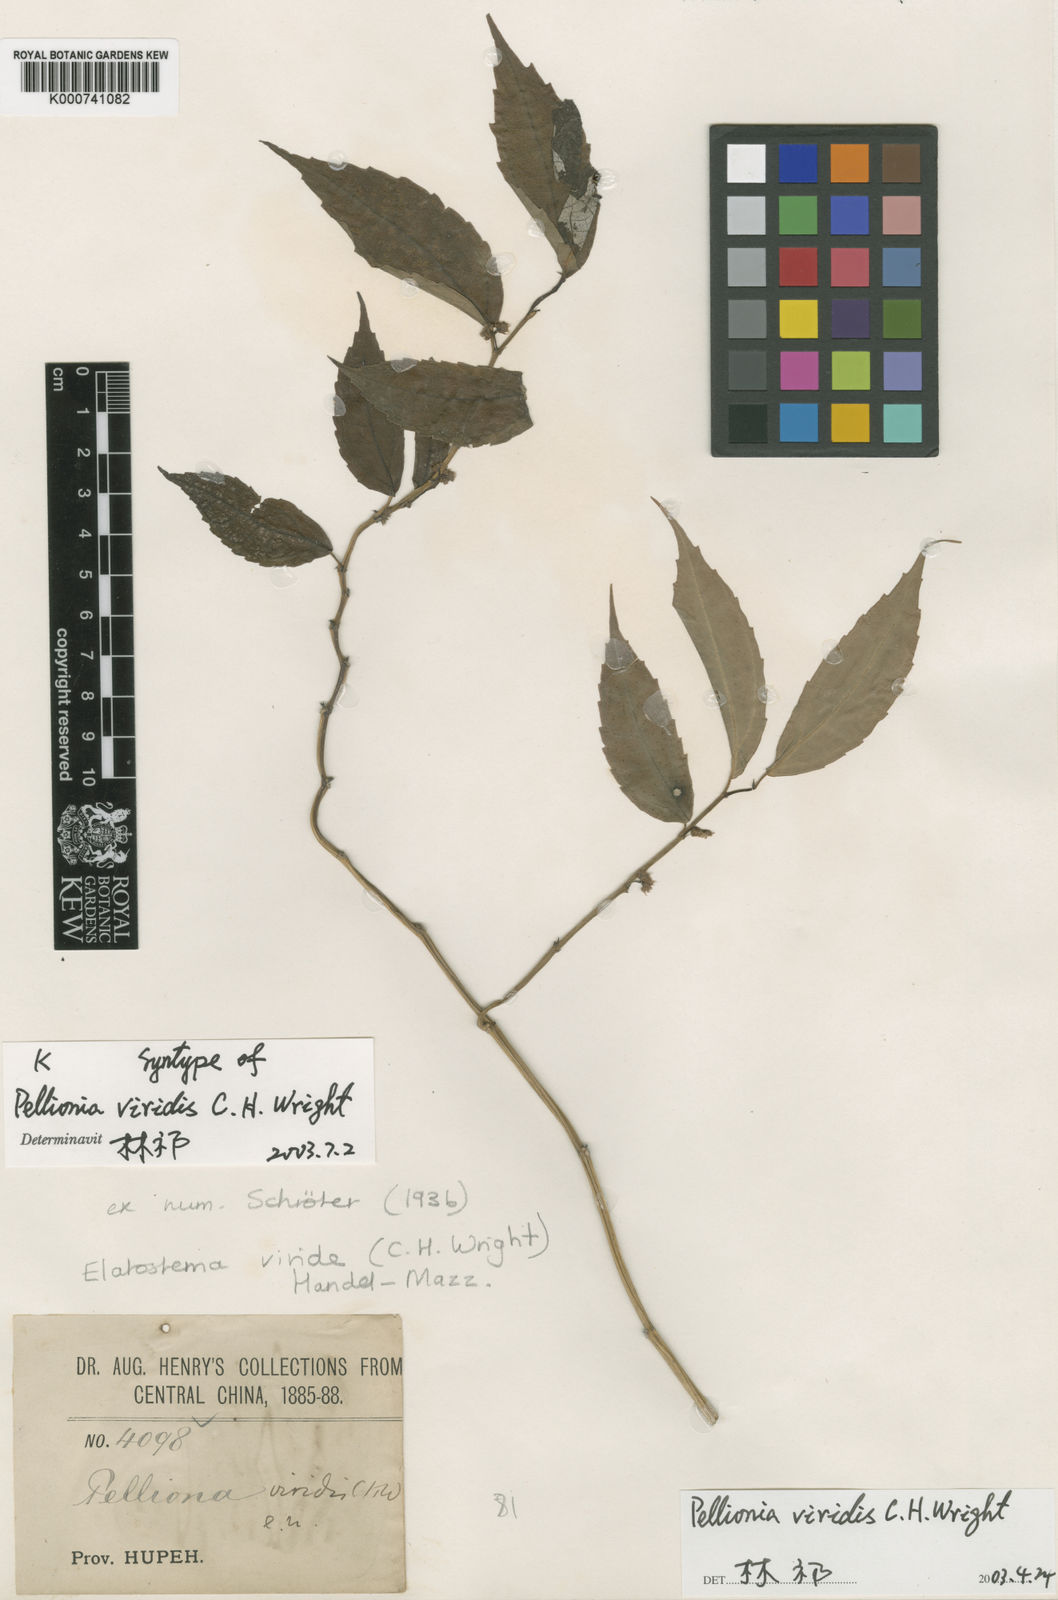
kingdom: Plantae
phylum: Tracheophyta
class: Magnoliopsida
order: Rosales
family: Urticaceae
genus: Elatostema
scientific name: Elatostema viride
